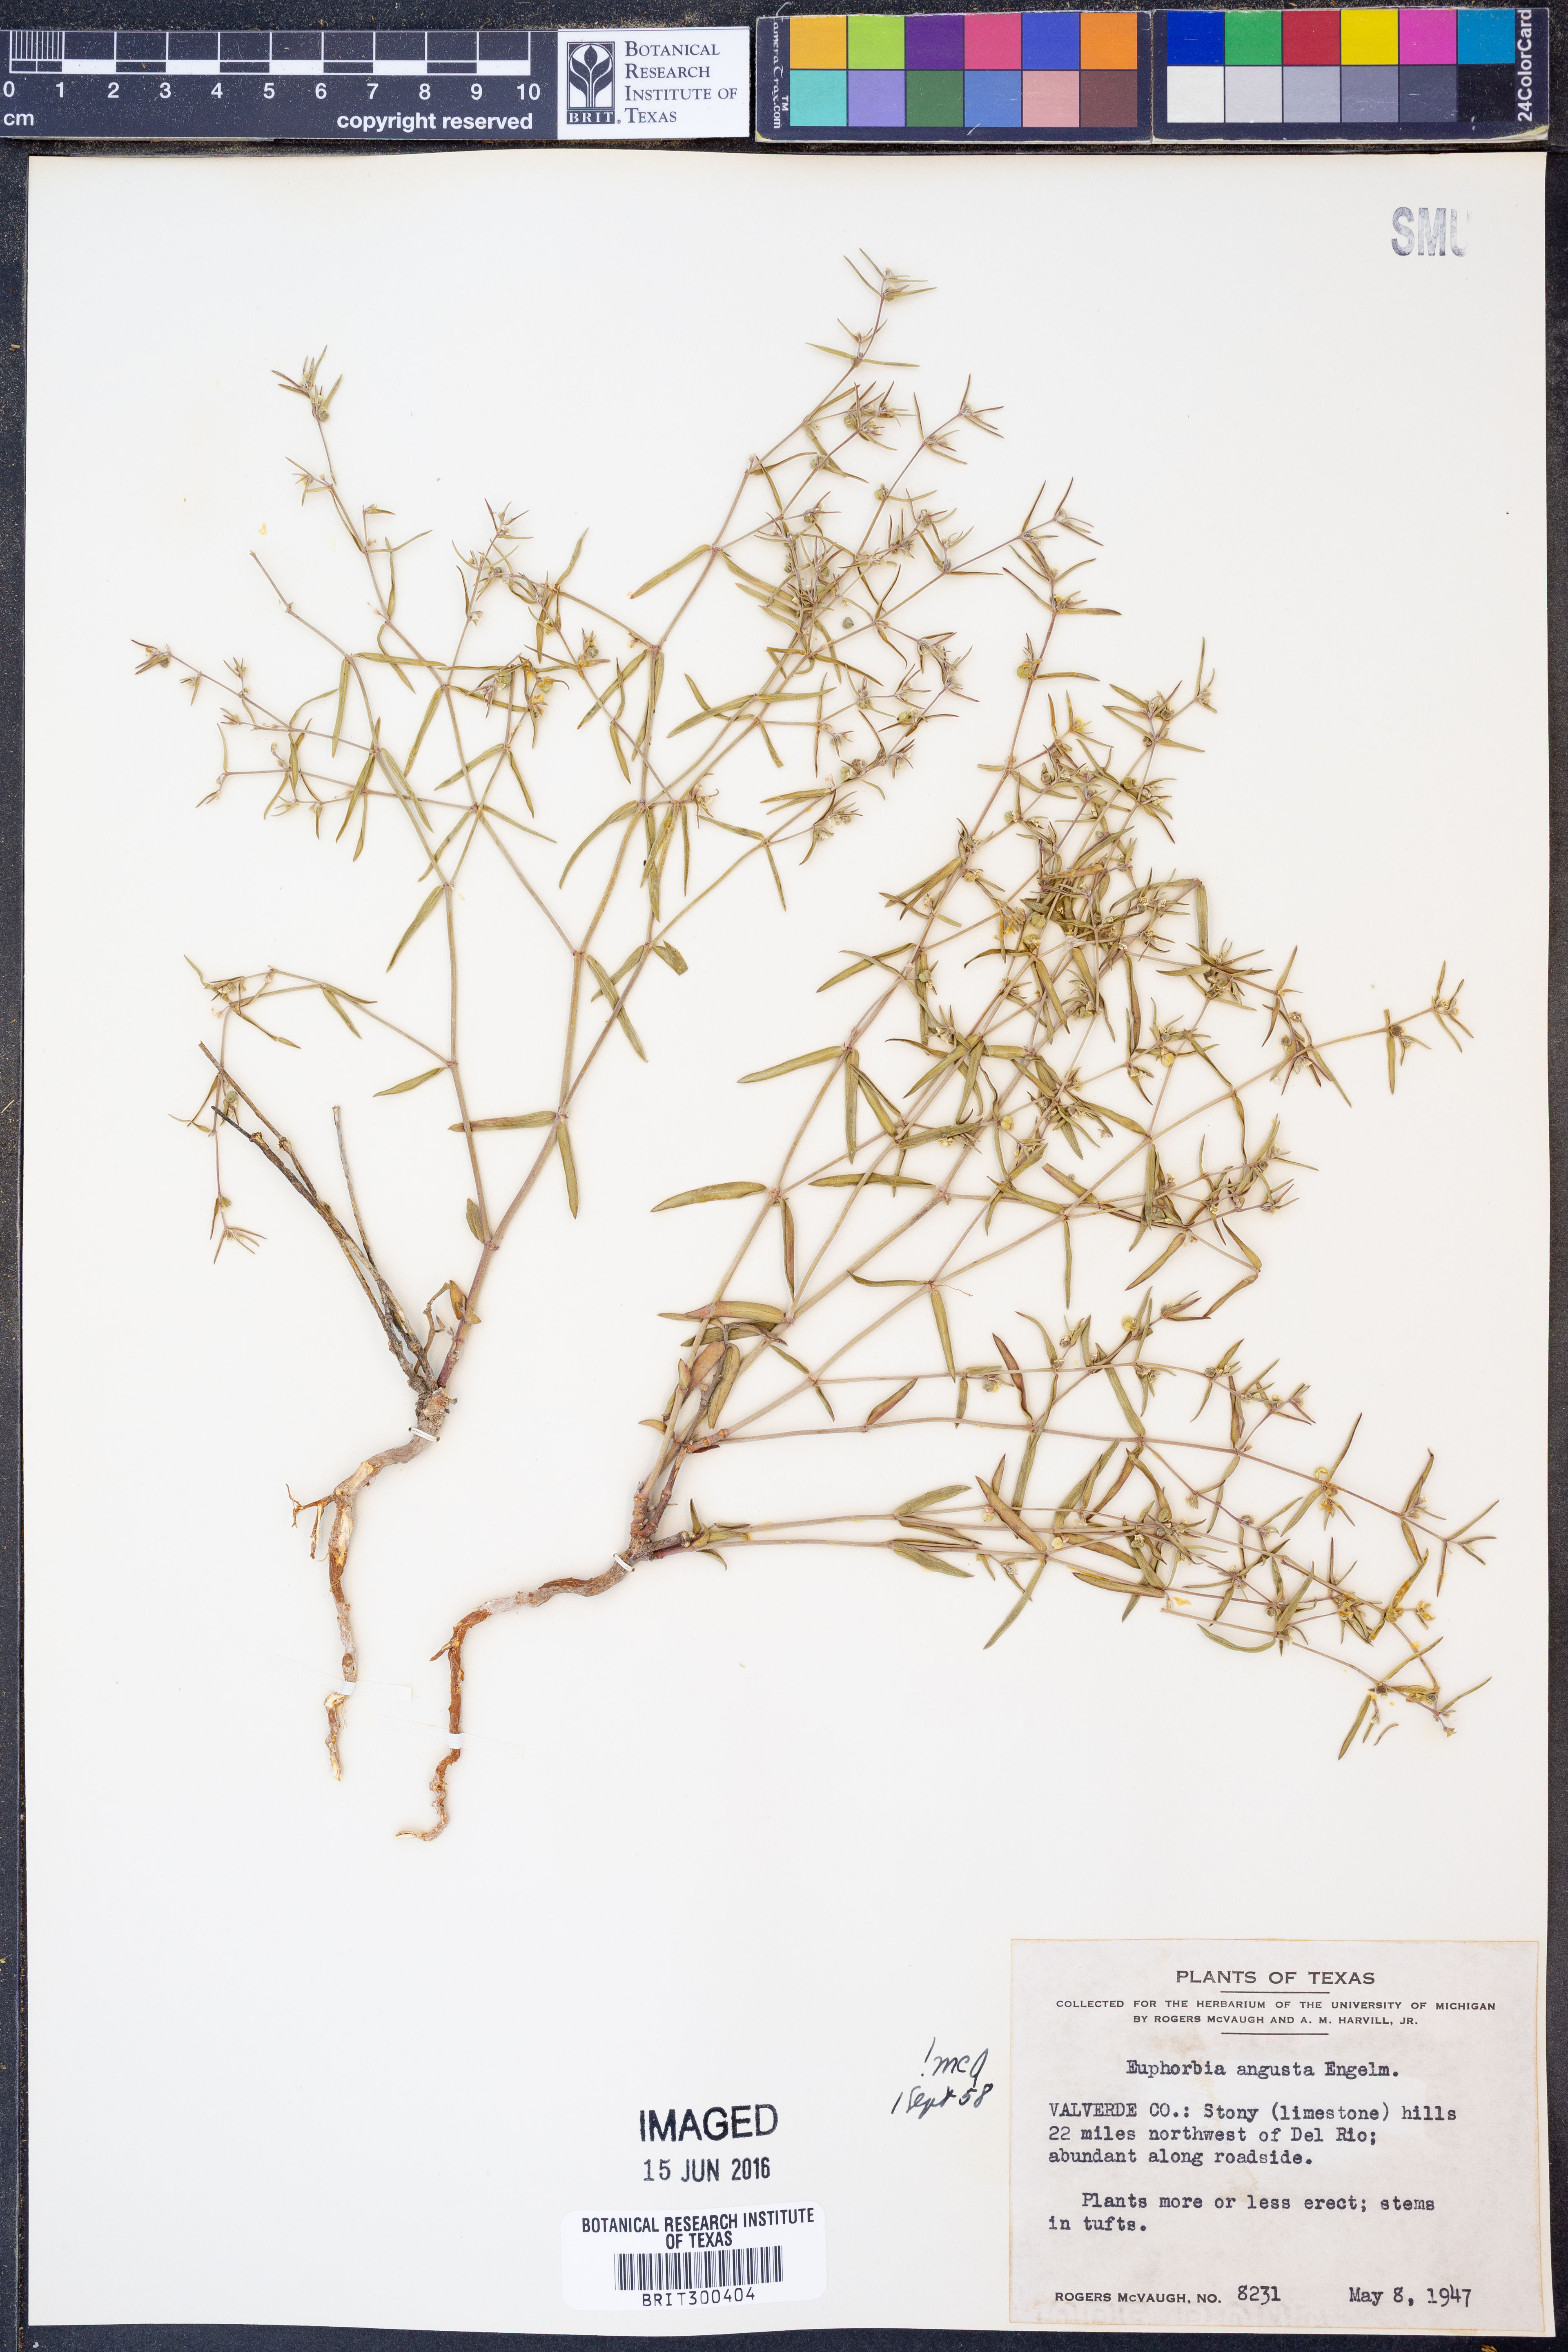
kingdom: Plantae
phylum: Tracheophyta
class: Magnoliopsida
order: Malpighiales
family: Euphorbiaceae
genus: Euphorbia
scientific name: Euphorbia angusta
